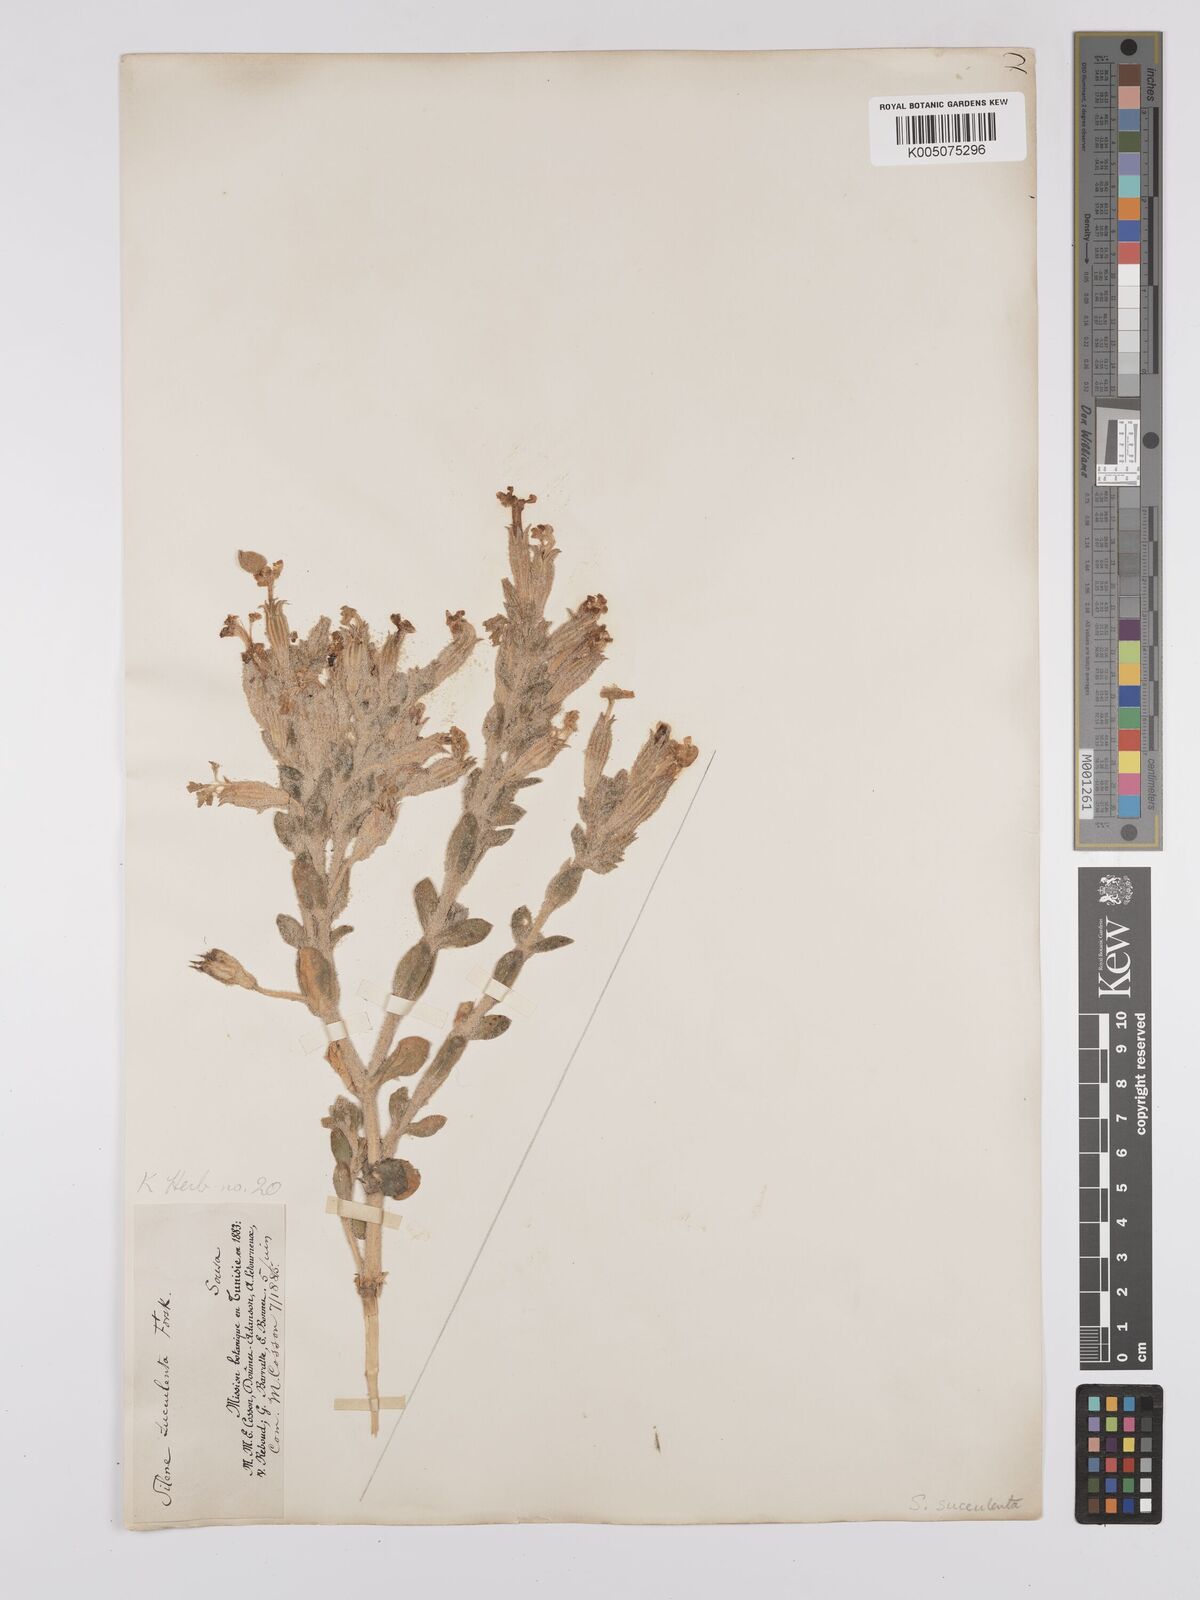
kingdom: Plantae
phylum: Tracheophyta
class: Magnoliopsida
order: Caryophyllales
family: Caryophyllaceae
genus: Silene
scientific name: Silene succulenta
